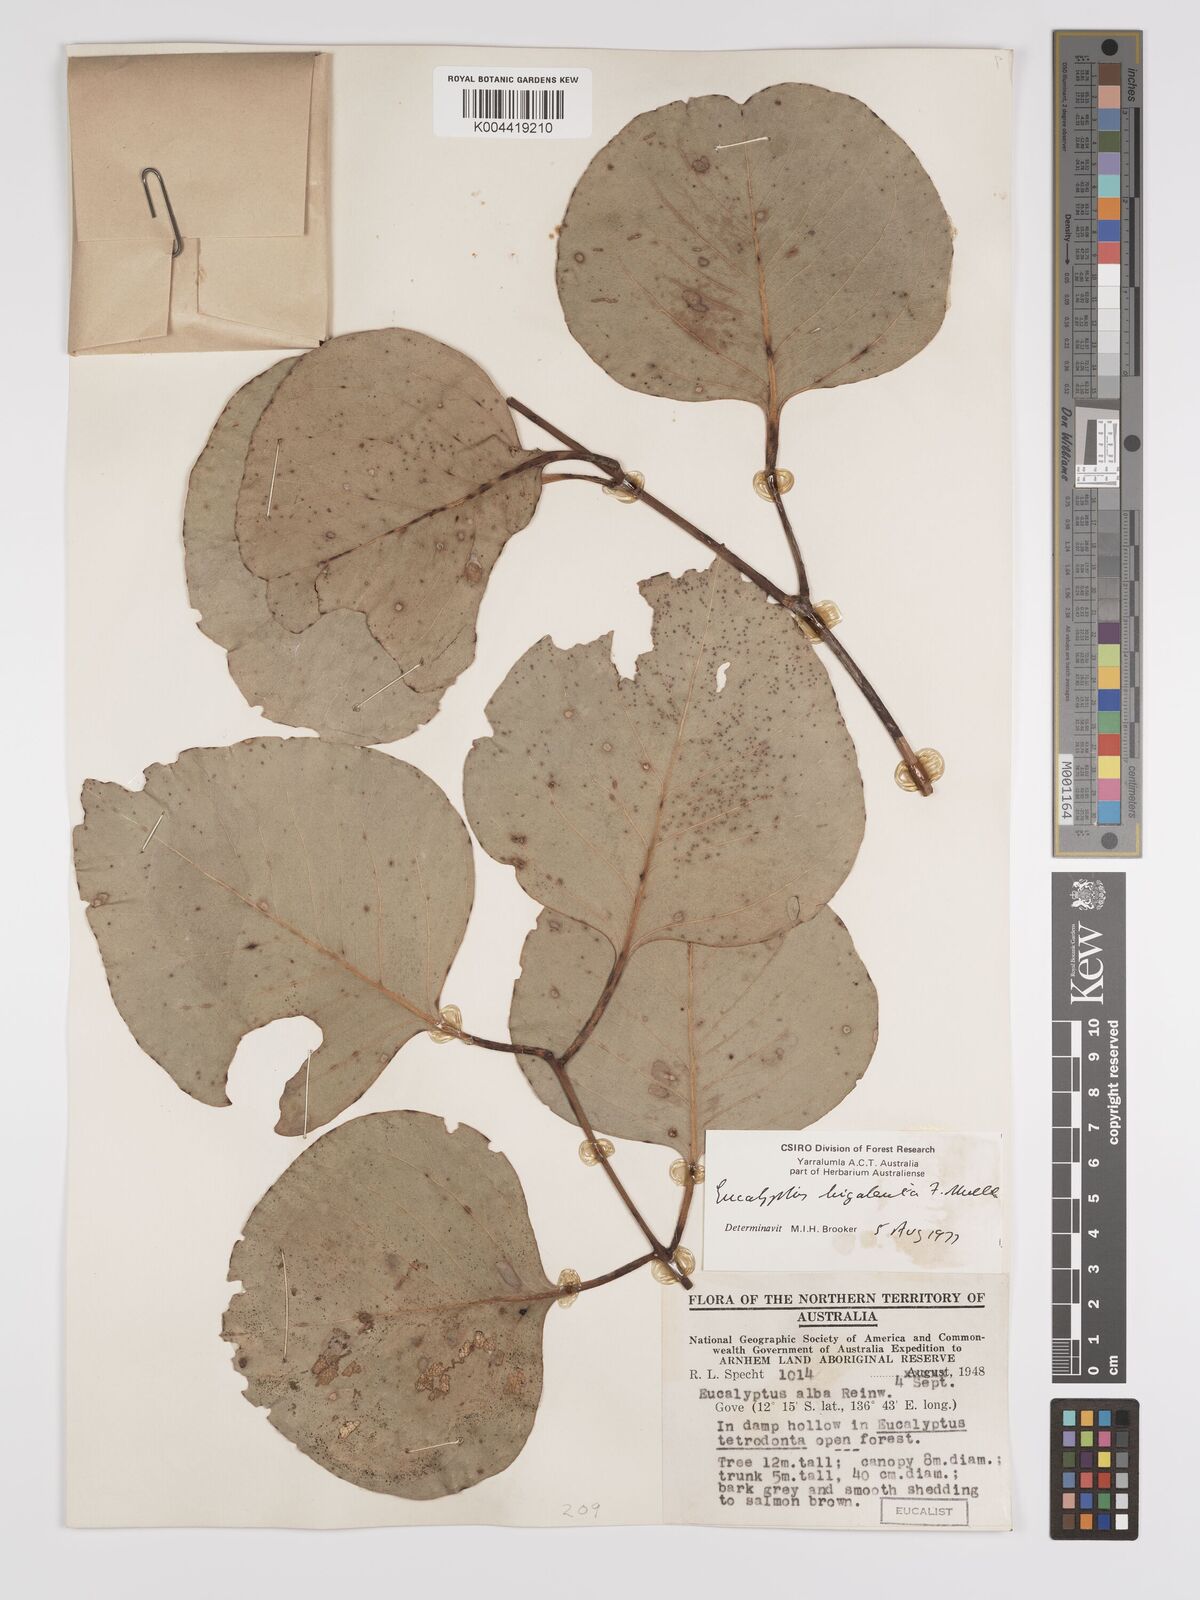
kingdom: Plantae
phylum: Tracheophyta
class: Magnoliopsida
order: Myrtales
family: Myrtaceae
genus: Eucalyptus
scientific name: Eucalyptus bigalerita
